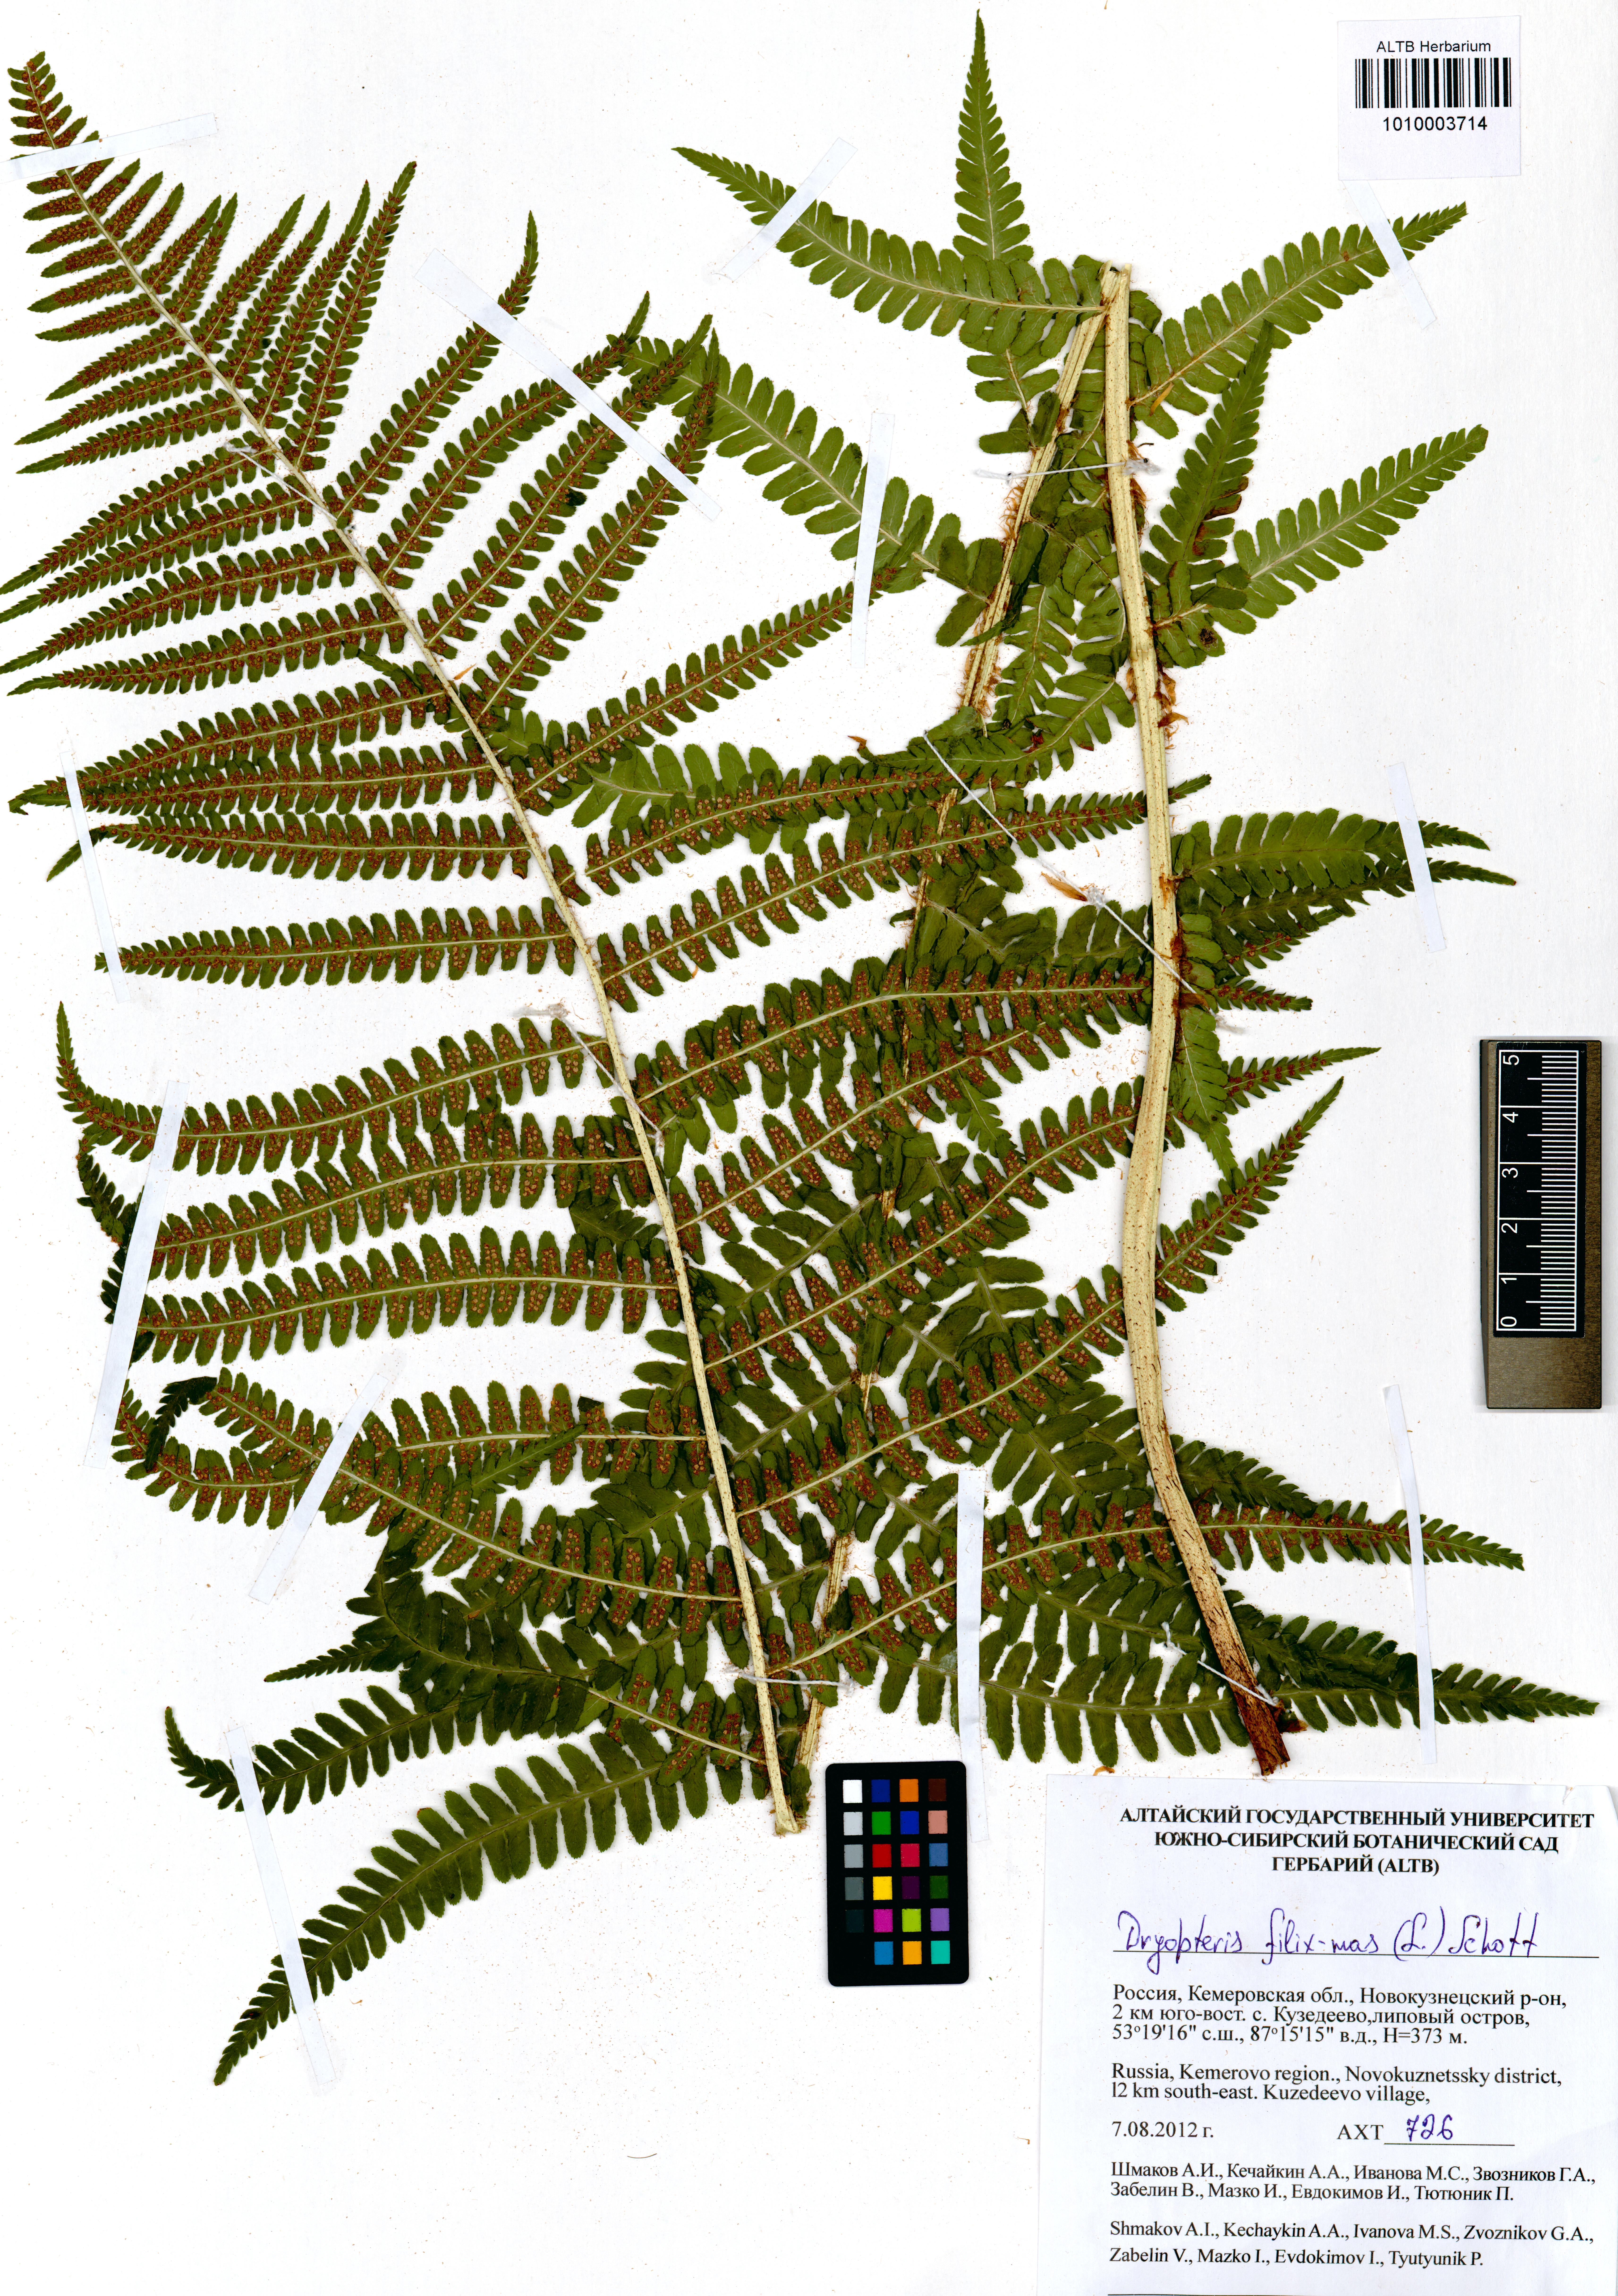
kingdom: Plantae
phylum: Tracheophyta
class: Polypodiopsida
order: Polypodiales
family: Dryopteridaceae
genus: Dryopteris
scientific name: Dryopteris filix-mas
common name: Male fern
